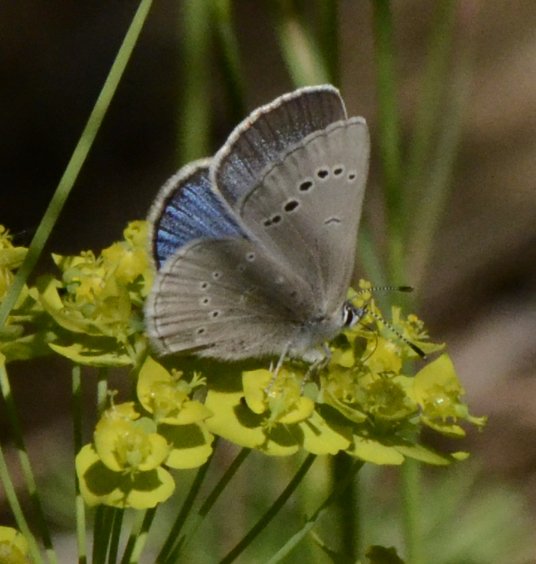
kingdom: Animalia
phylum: Arthropoda
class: Insecta
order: Lepidoptera
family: Lycaenidae
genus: Glaucopsyche
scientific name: Glaucopsyche lygdamus
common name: Silvery Blue
